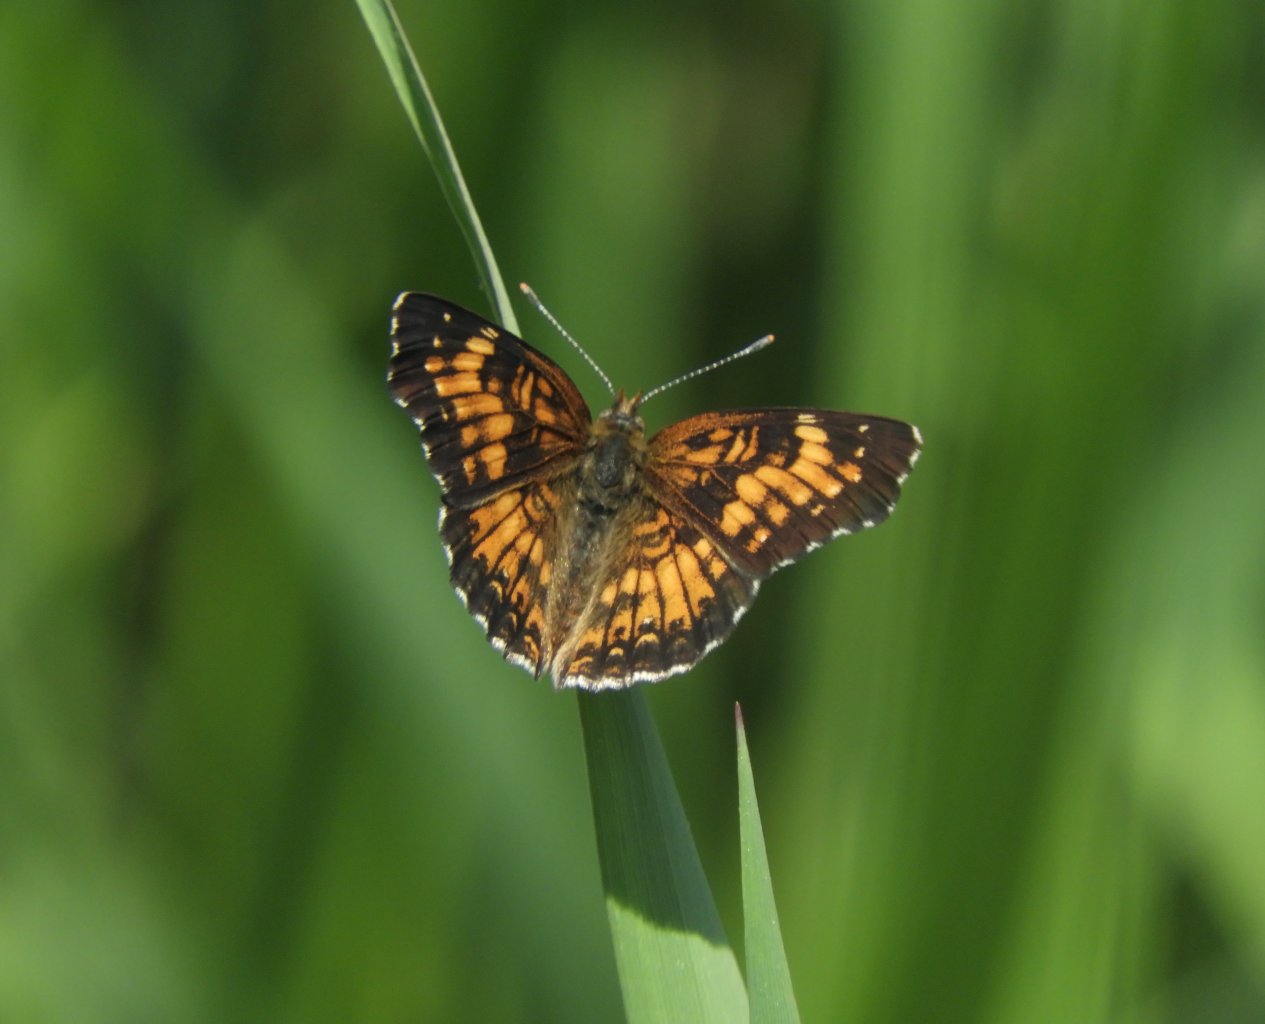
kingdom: Animalia
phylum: Arthropoda
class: Insecta
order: Lepidoptera
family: Nymphalidae
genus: Chlosyne
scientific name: Chlosyne harrisii
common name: Harris's Checkerspot
